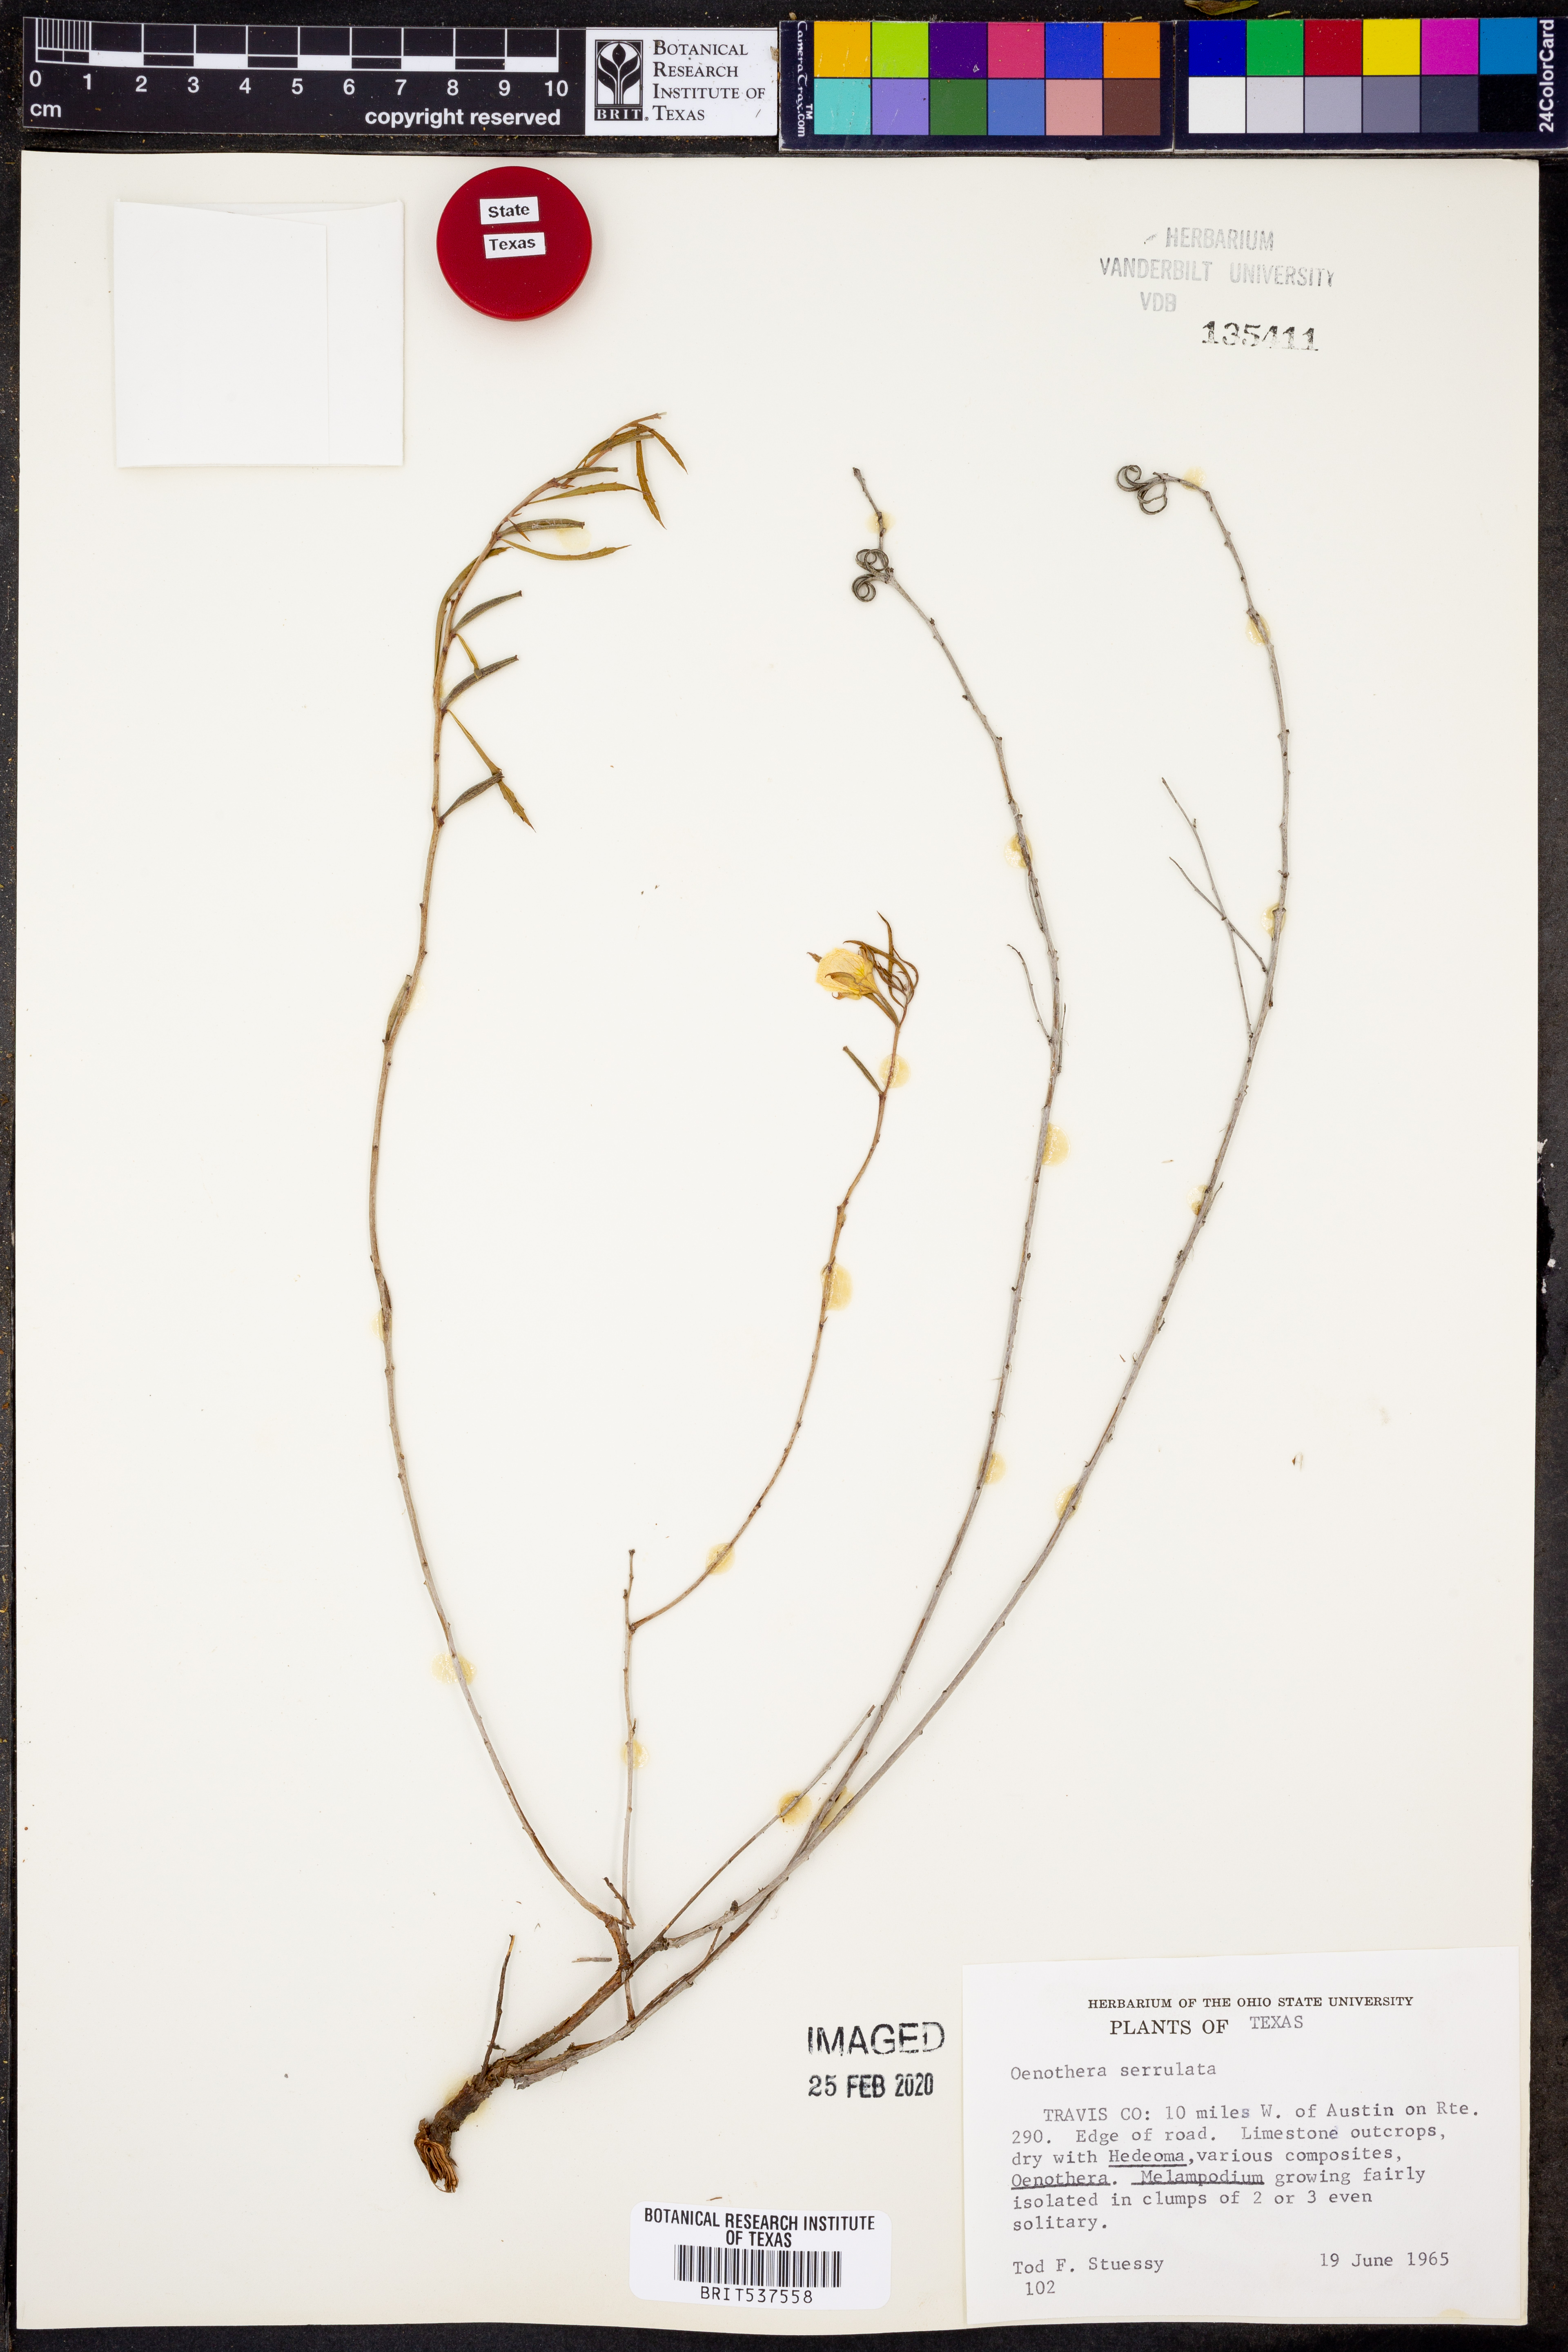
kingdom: Plantae
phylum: Tracheophyta
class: Magnoliopsida
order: Myrtales
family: Onagraceae
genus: Oenothera
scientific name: Oenothera serrulata
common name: Half-shrub calylophus
